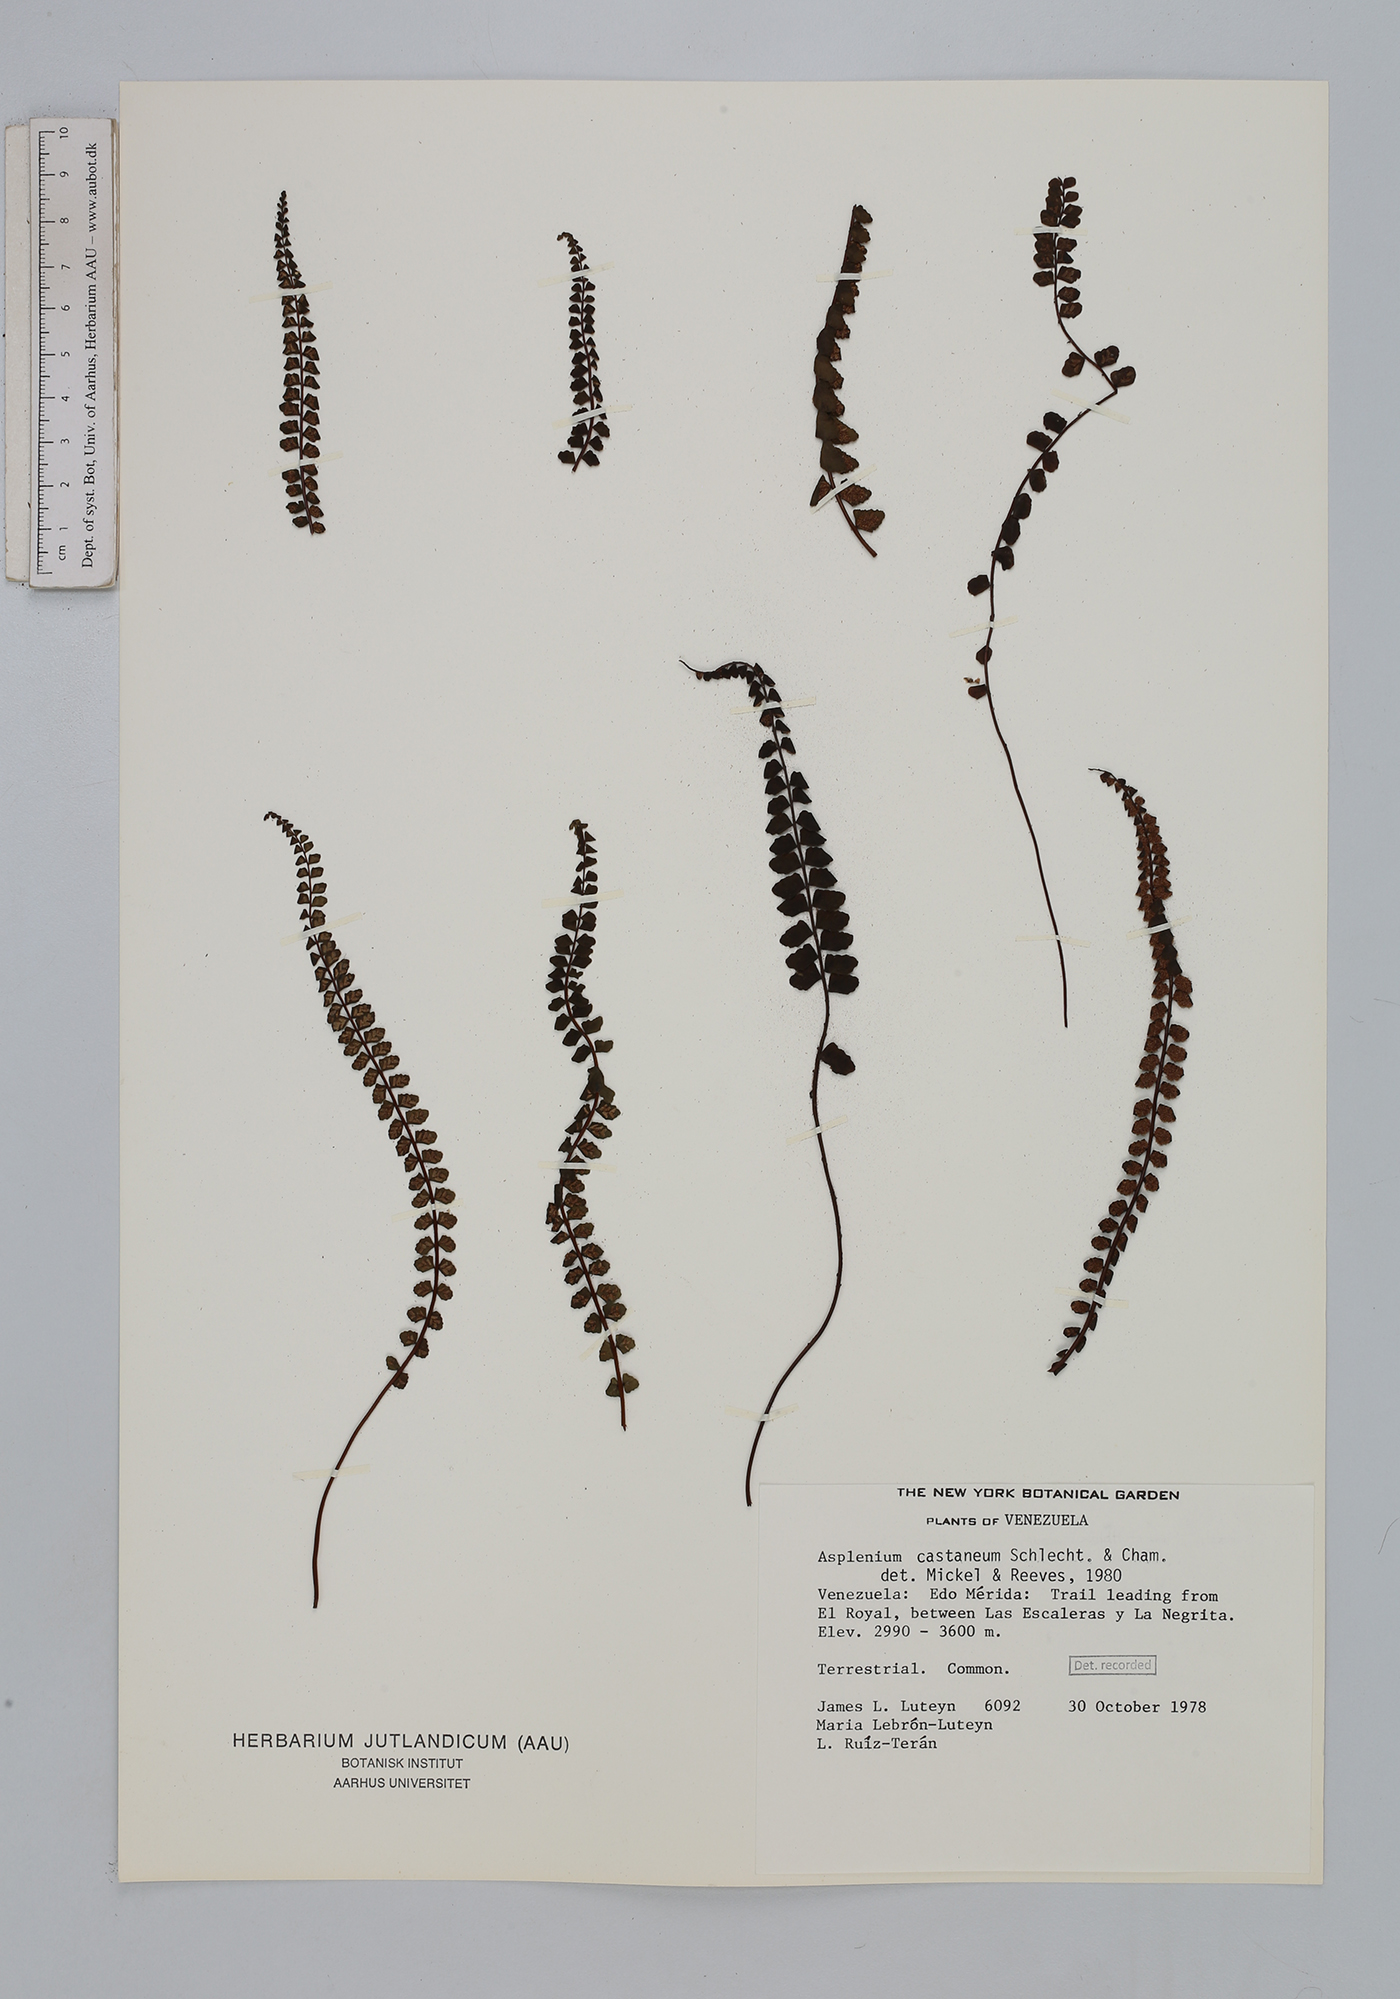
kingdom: Plantae
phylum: Tracheophyta
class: Polypodiopsida
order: Polypodiales
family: Aspleniaceae
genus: Asplenium
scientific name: Asplenium castaneum
